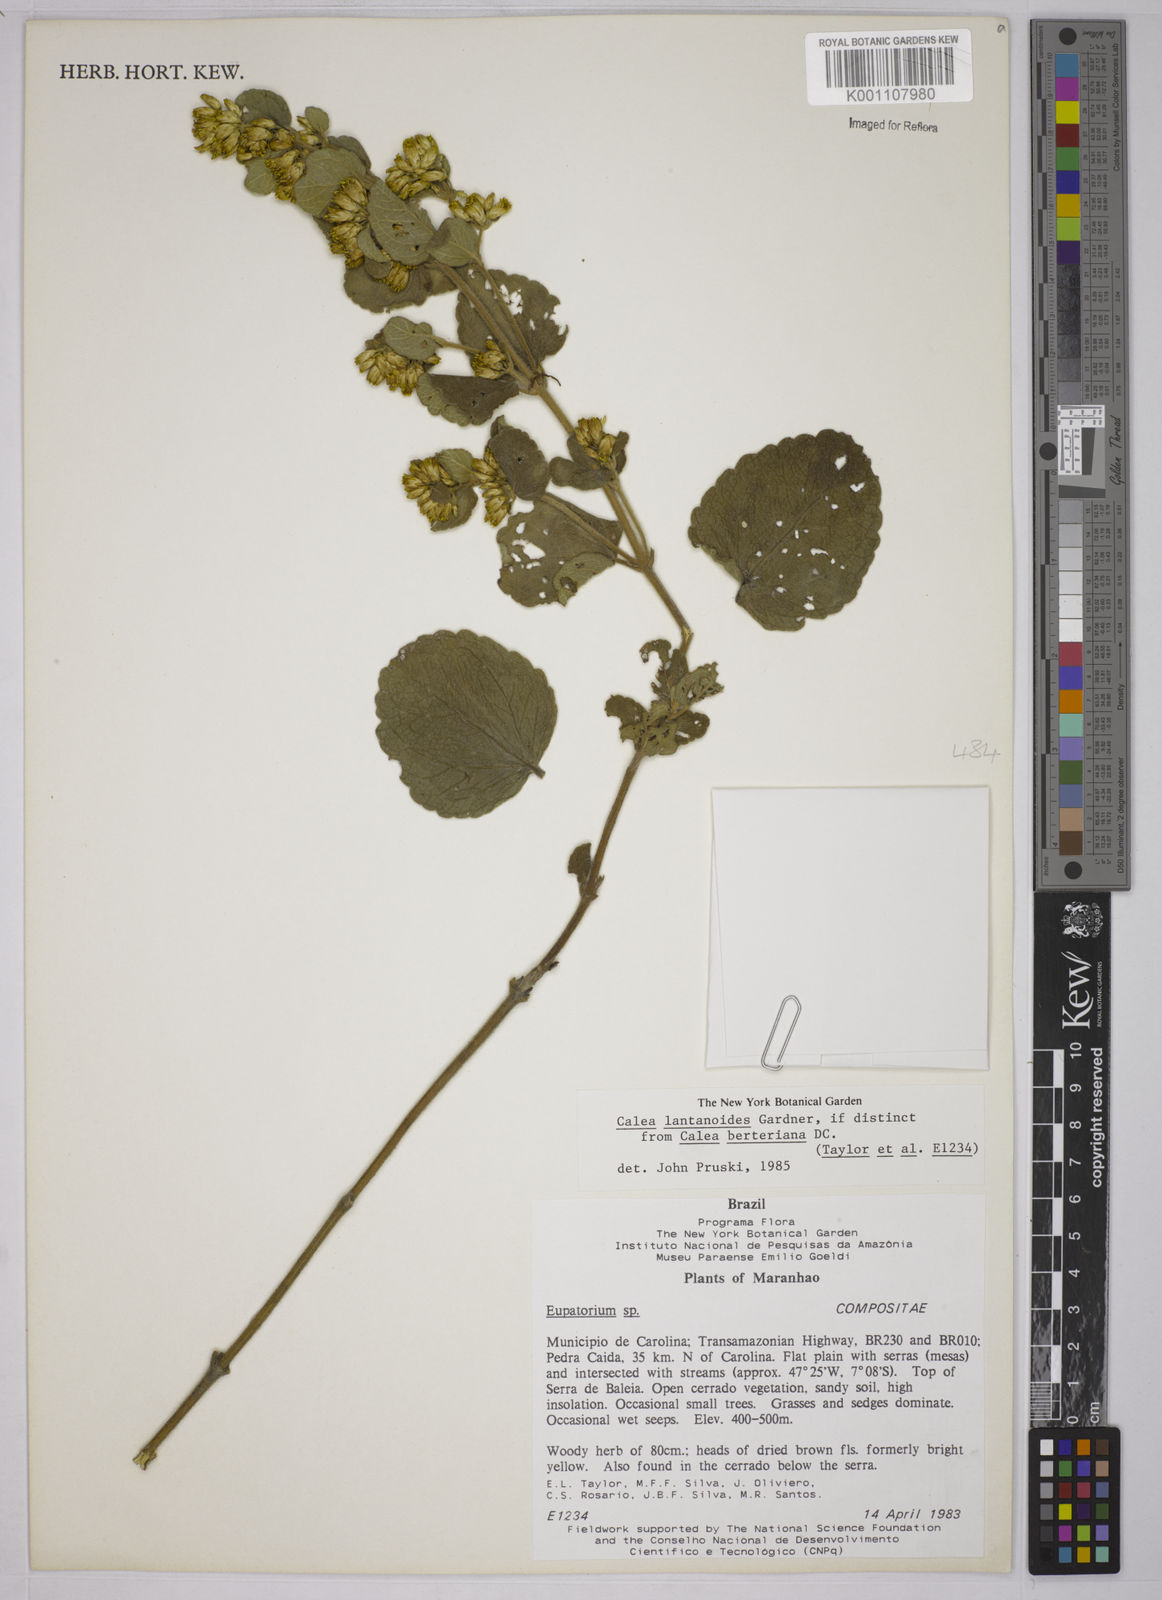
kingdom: Plantae
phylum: Tracheophyta
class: Magnoliopsida
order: Asterales
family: Asteraceae
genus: Calea
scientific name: Calea lantanoides
